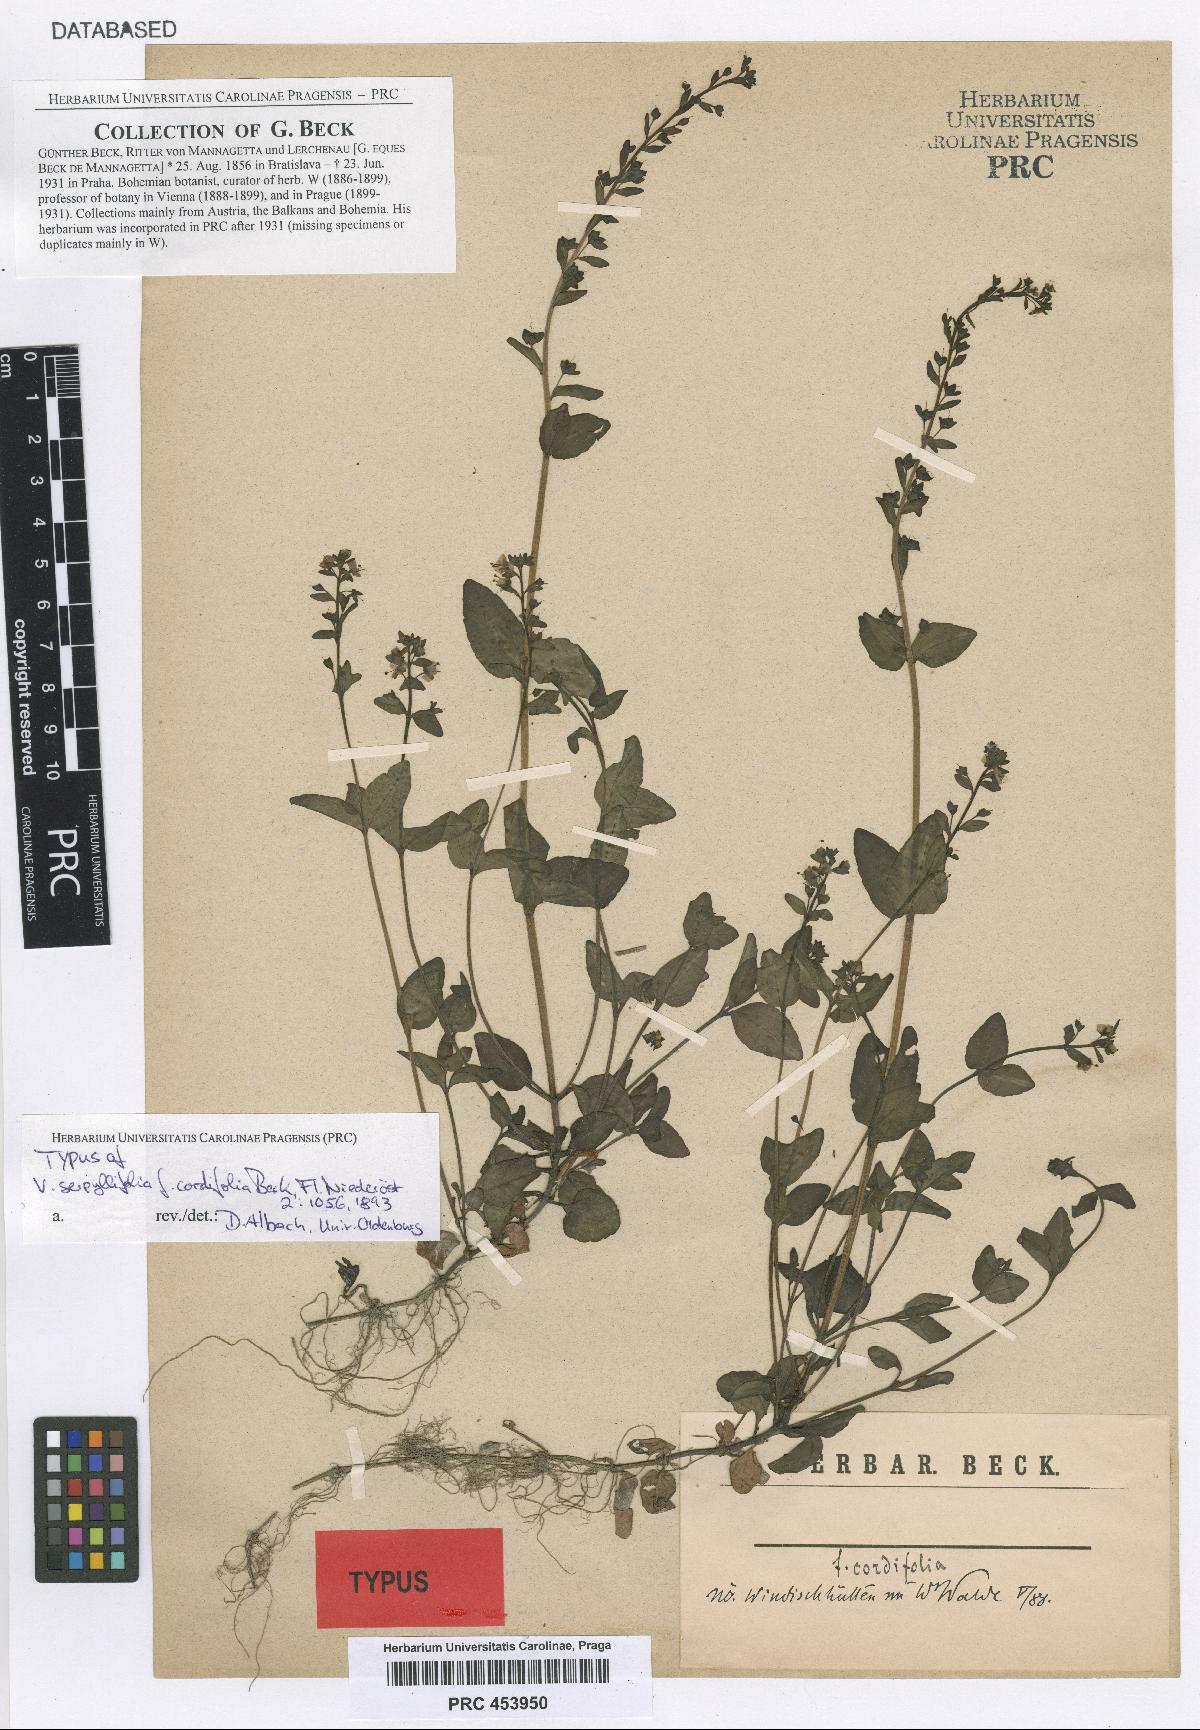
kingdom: Plantae
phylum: Tracheophyta
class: Magnoliopsida
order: Lamiales
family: Plantaginaceae
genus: Veronica
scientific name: Veronica serpyllifolia
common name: Thyme-leaved speedwell
